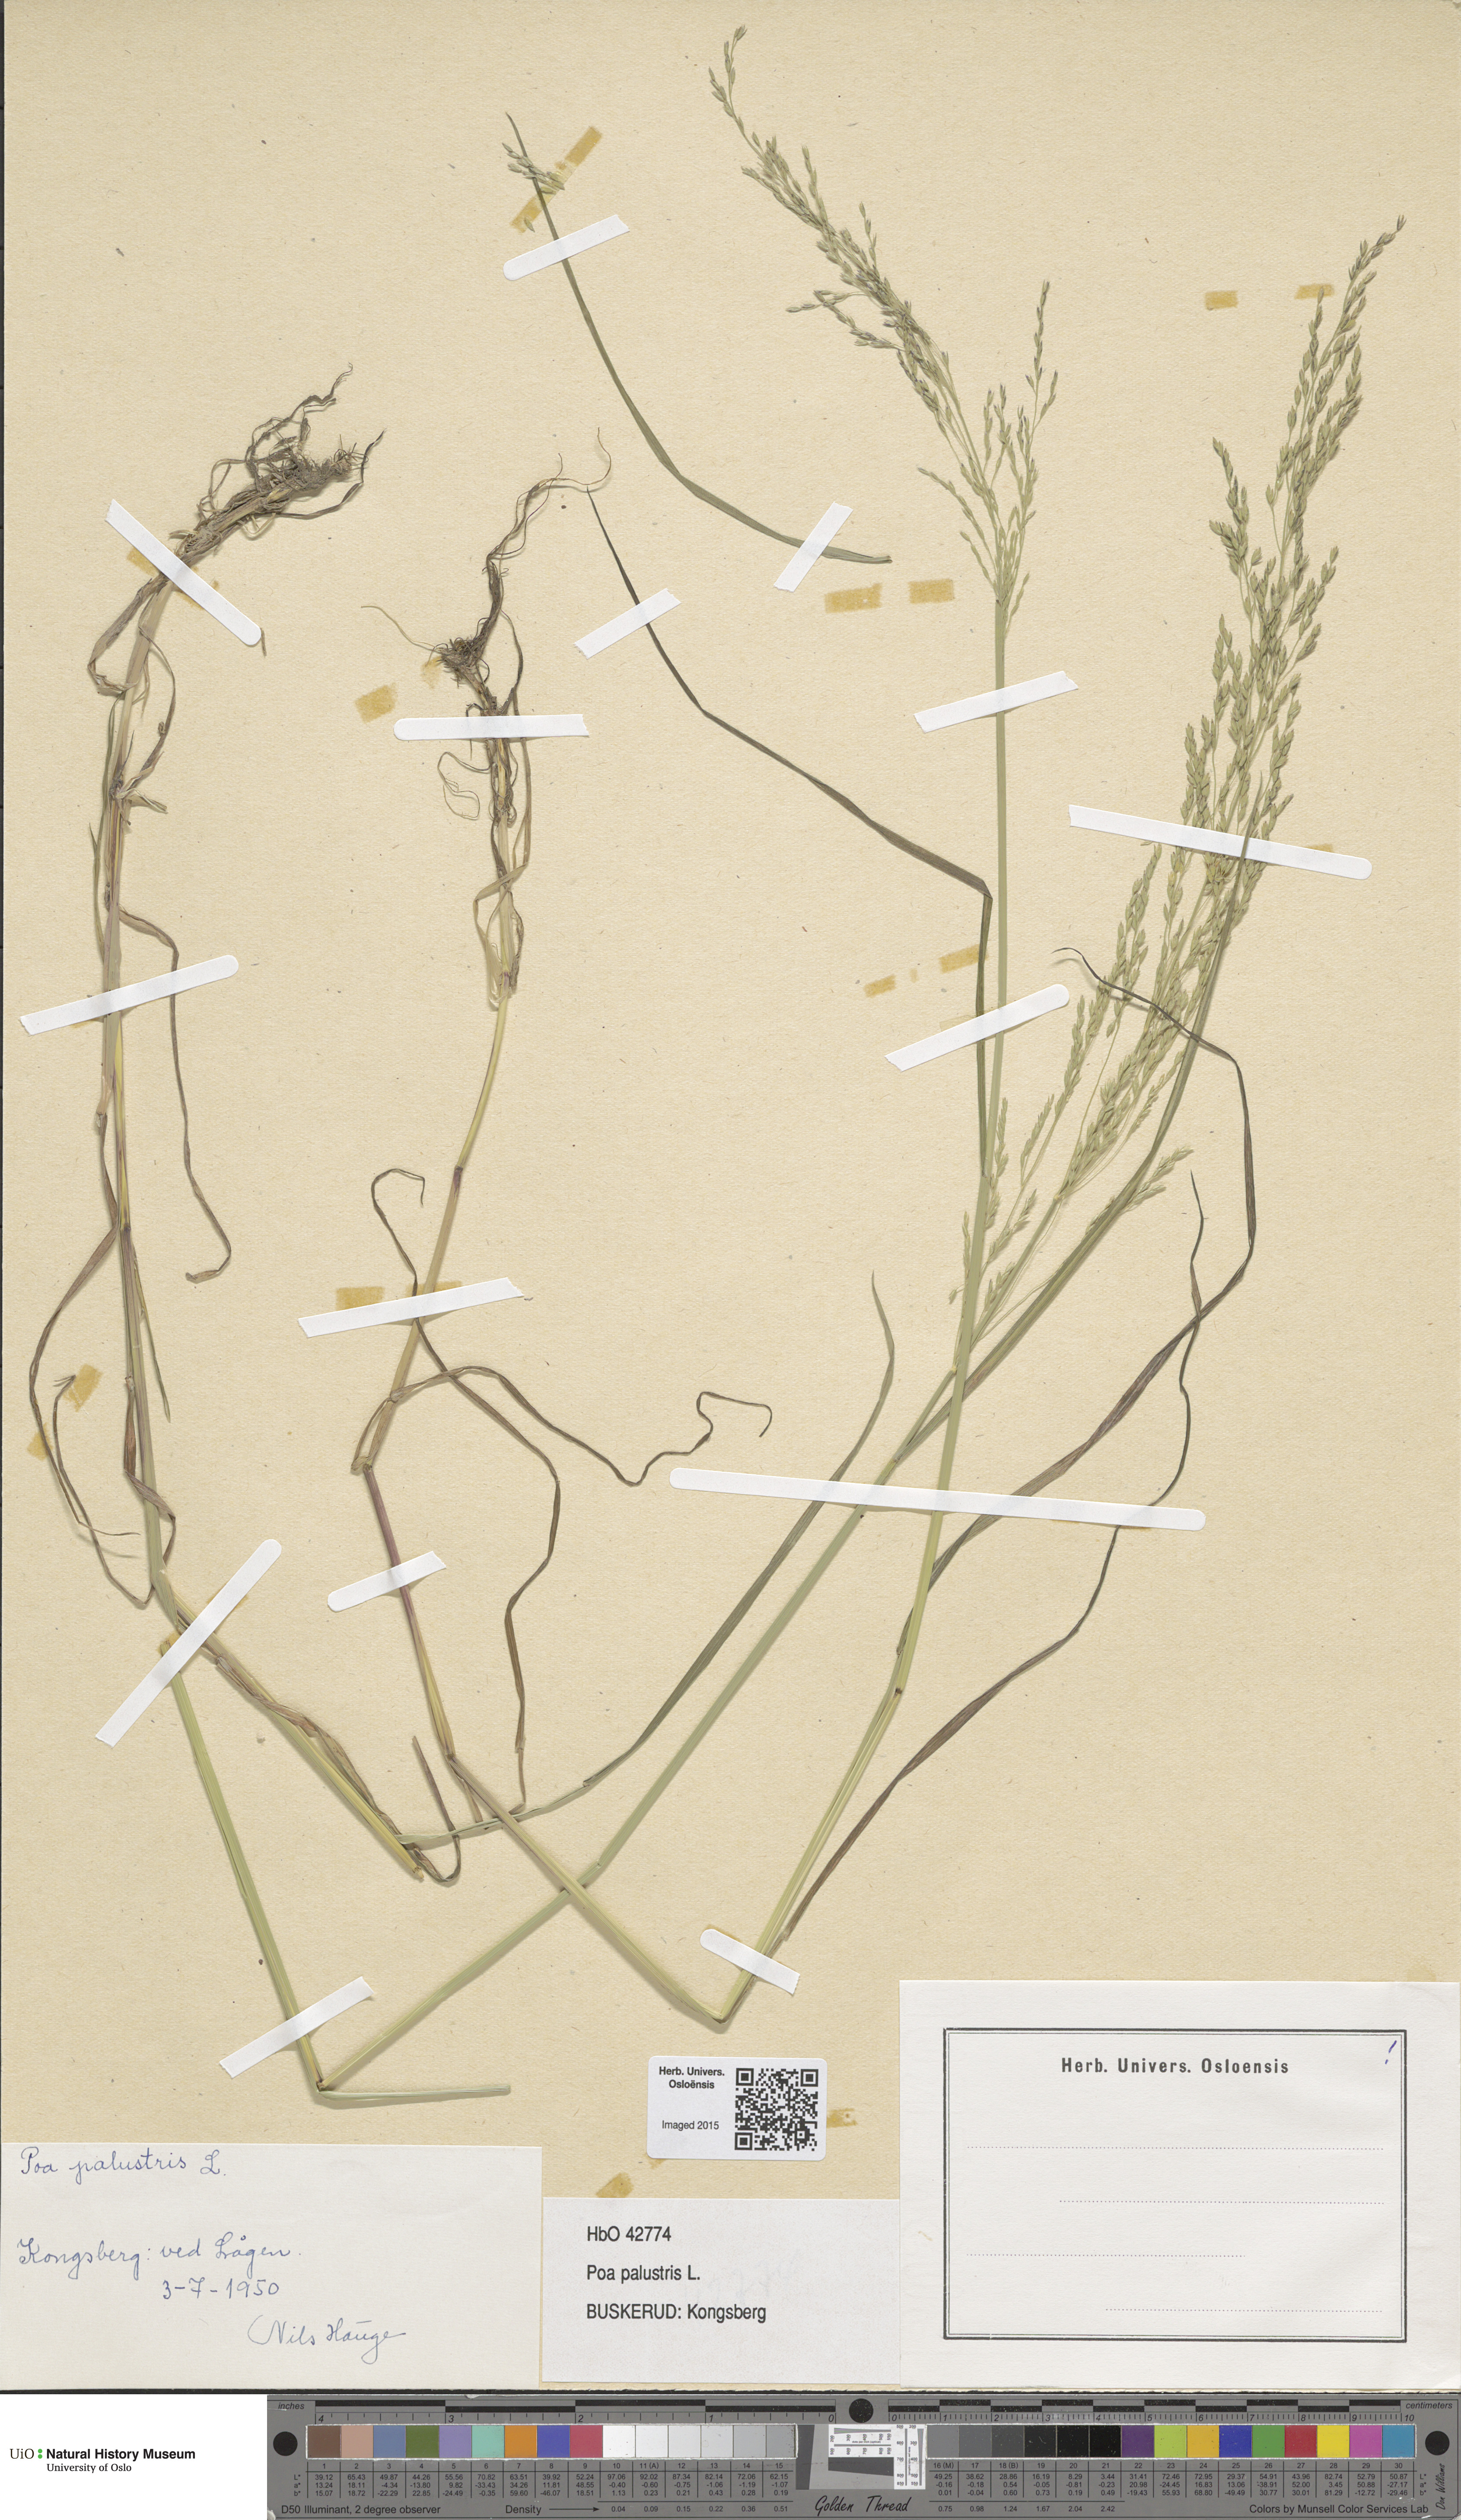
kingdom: Plantae
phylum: Tracheophyta
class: Liliopsida
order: Poales
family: Poaceae
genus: Poa
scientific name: Poa palustris
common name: Swamp meadow-grass
